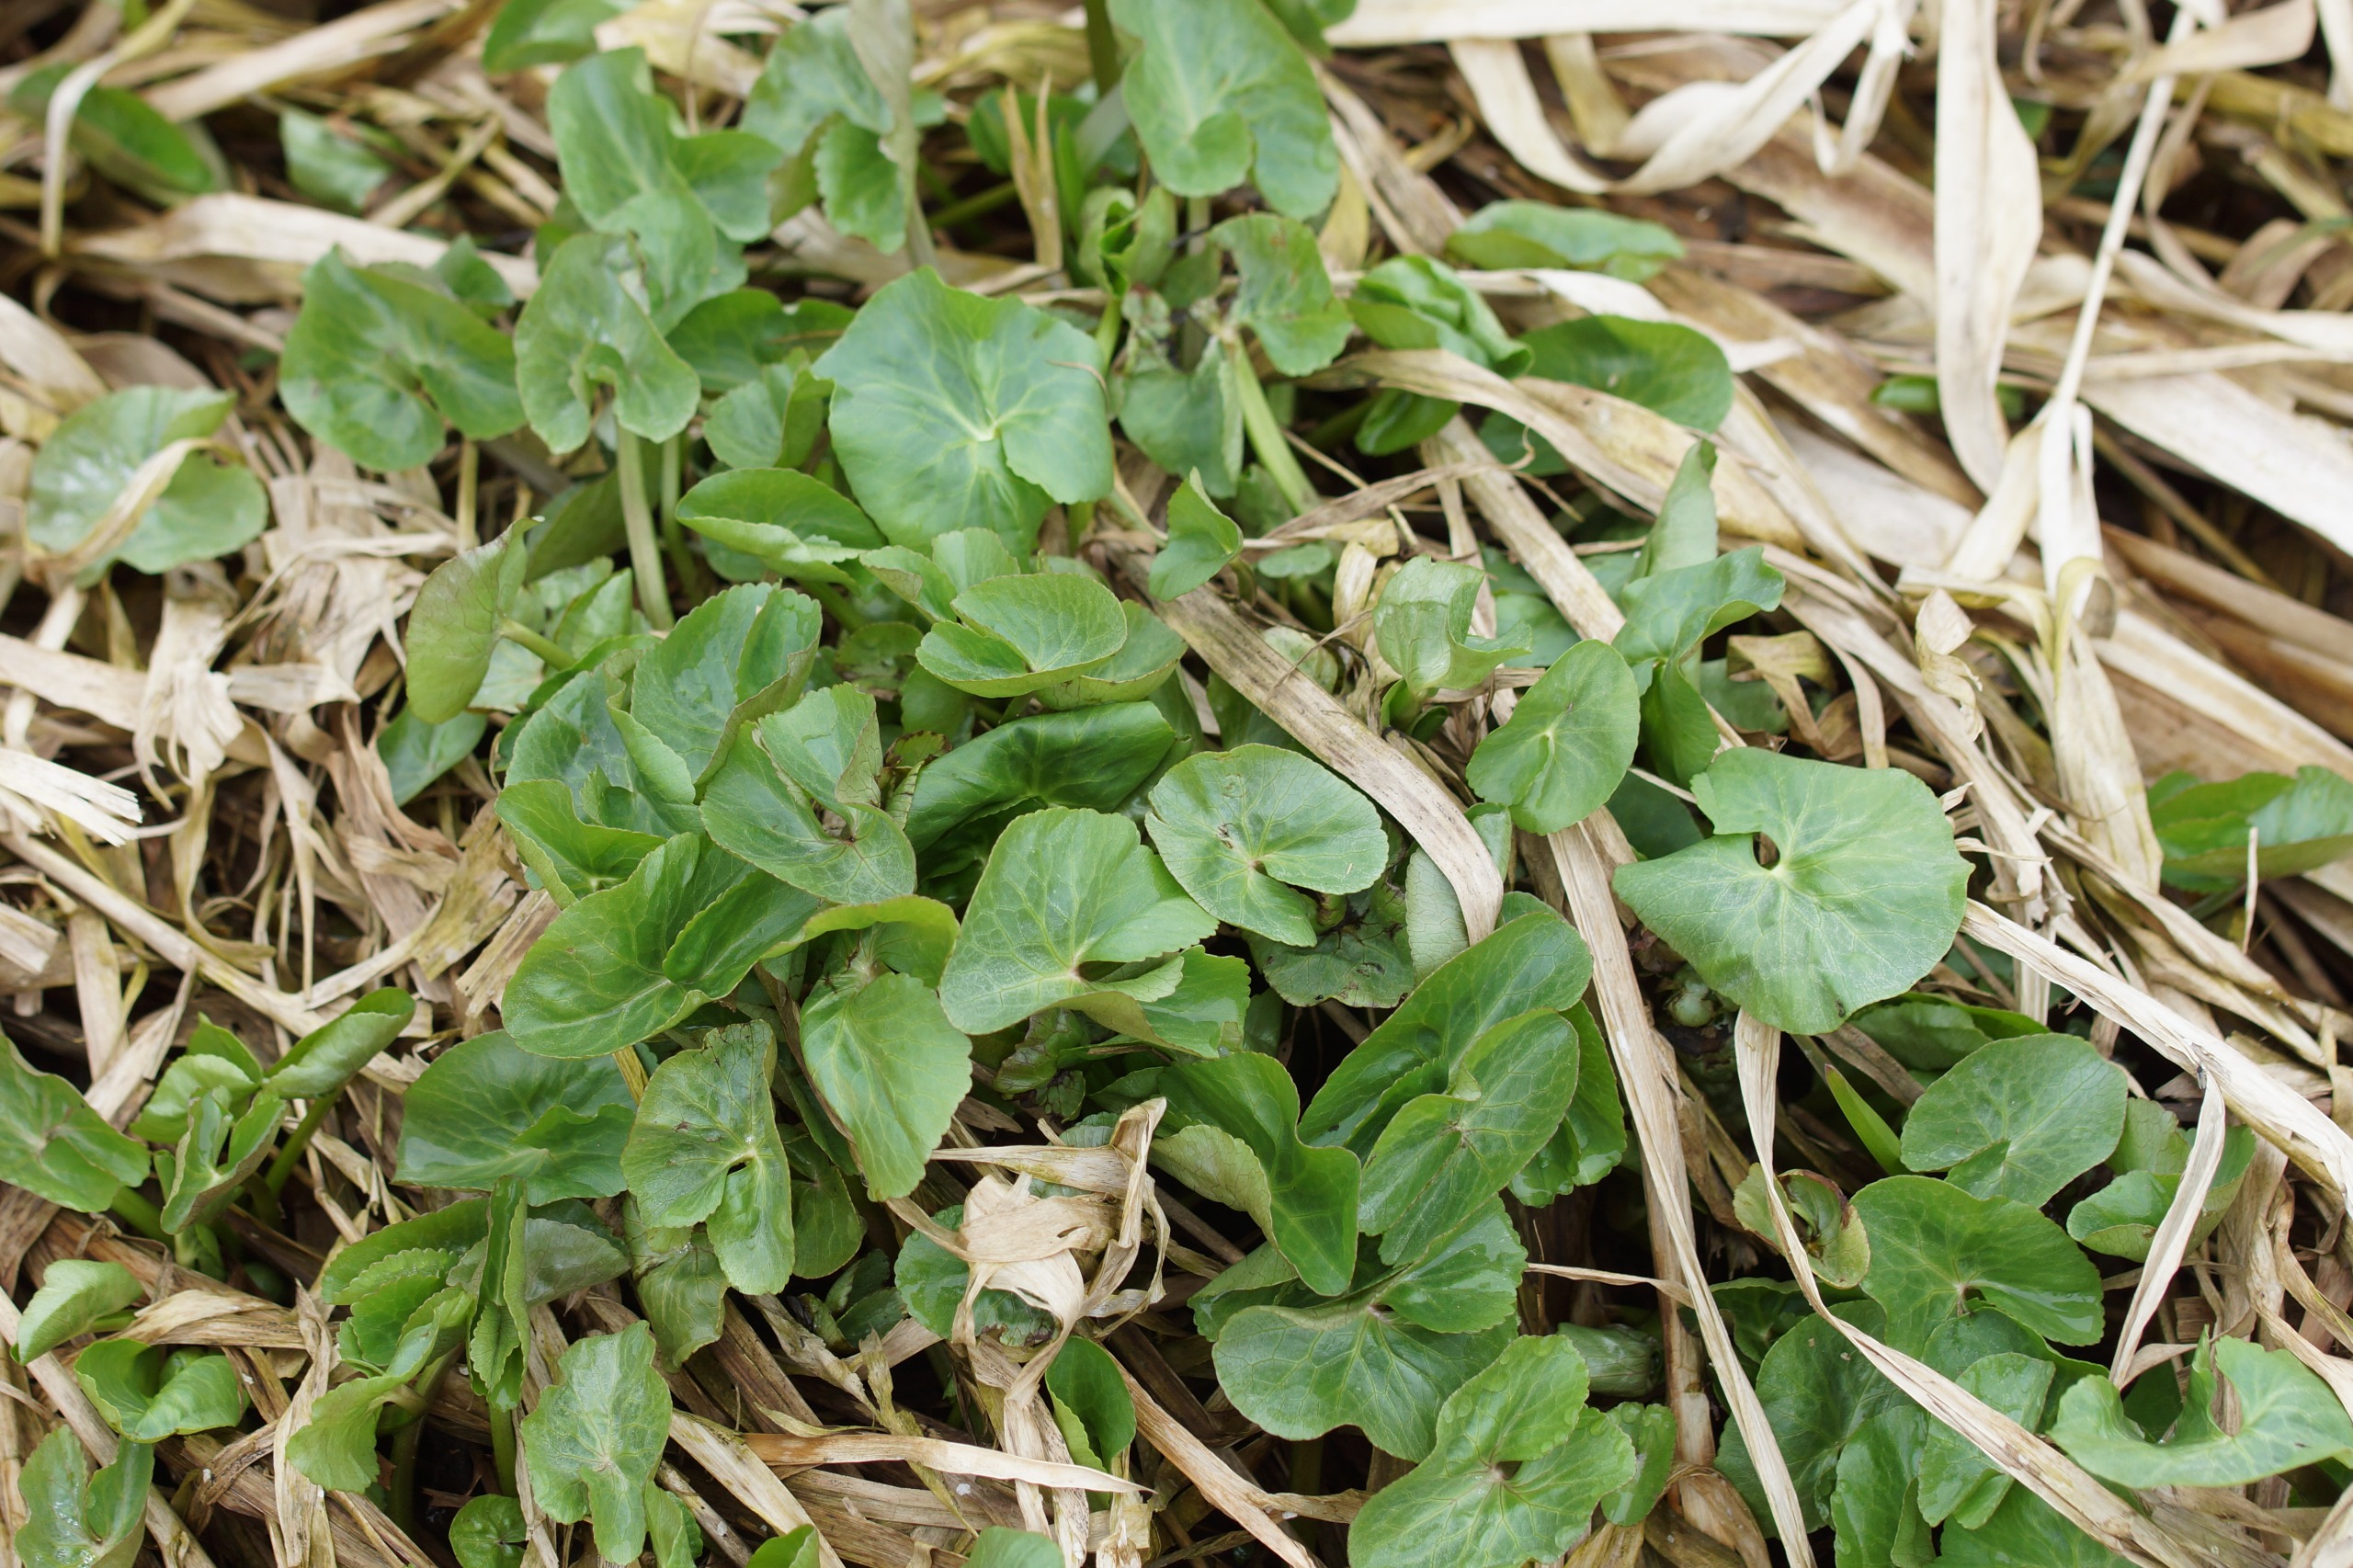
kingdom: Plantae
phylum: Tracheophyta
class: Magnoliopsida
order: Ranunculales
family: Ranunculaceae
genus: Caltha
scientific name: Caltha palustris
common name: Eng-kabbeleje
